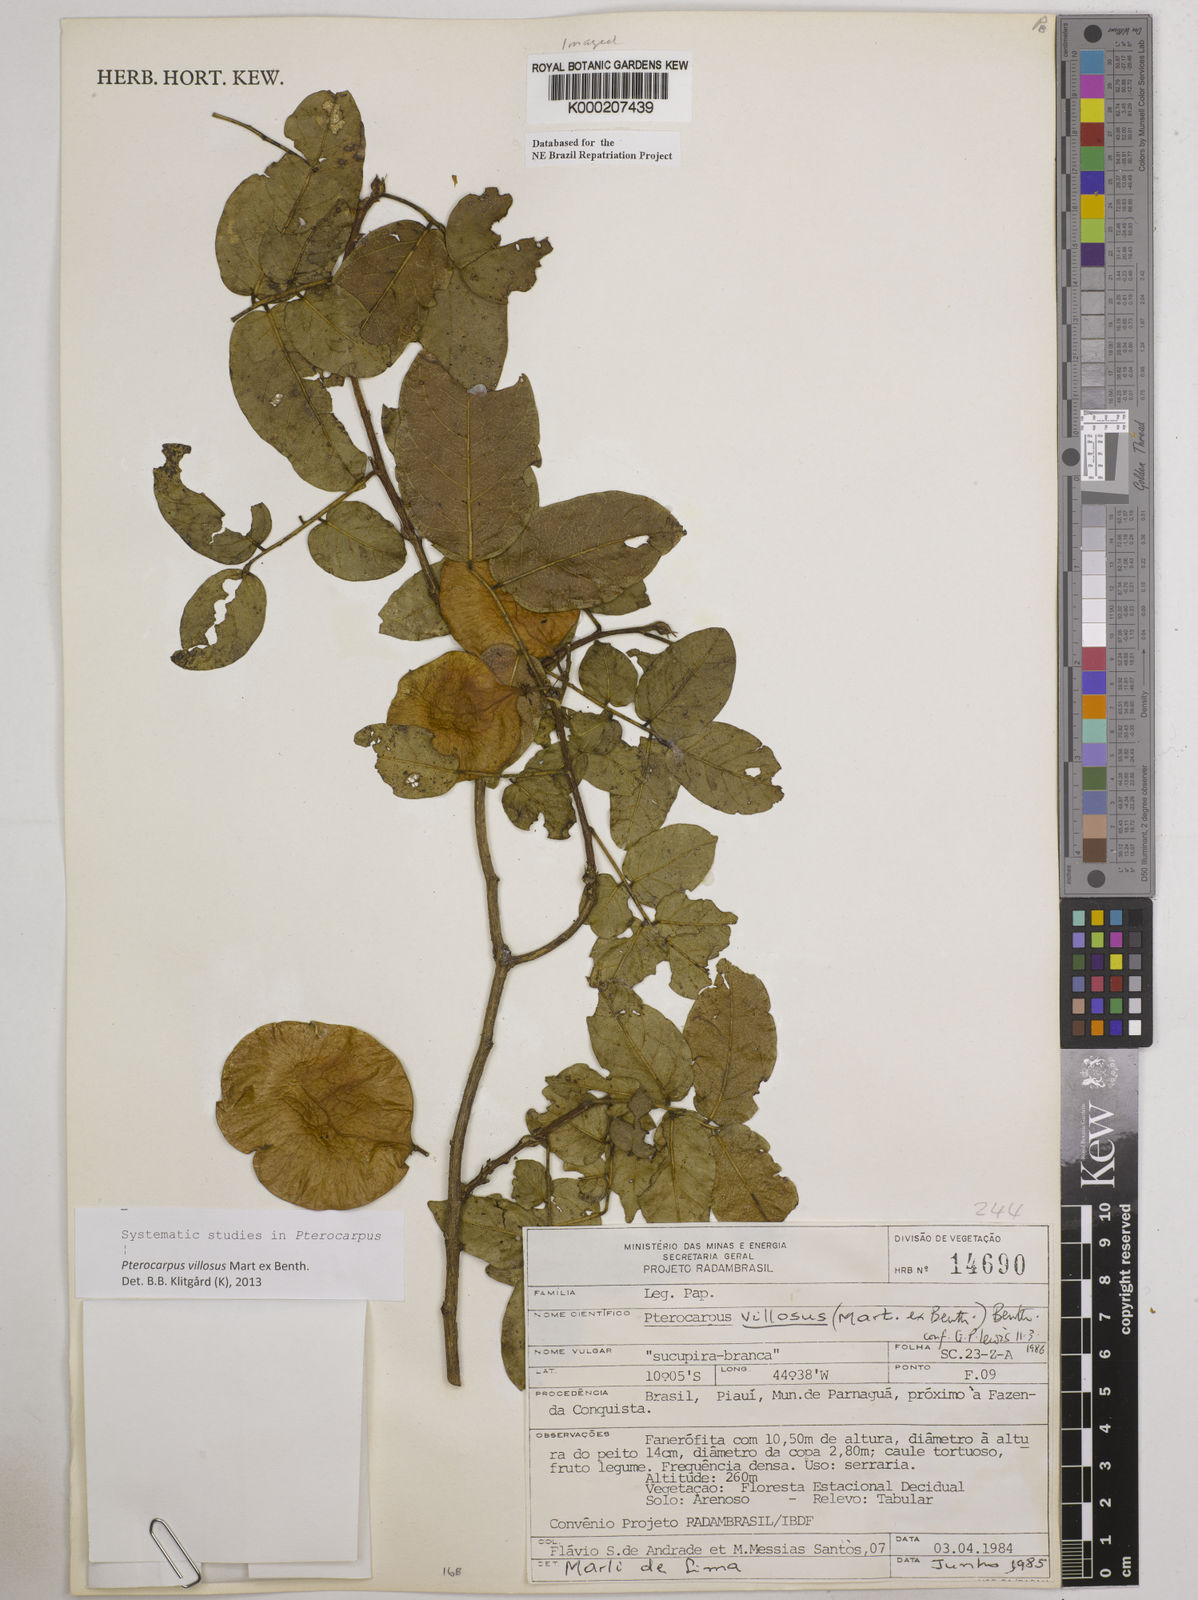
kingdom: Plantae
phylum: Tracheophyta
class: Magnoliopsida
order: Fabales
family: Fabaceae
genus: Pterocarpus
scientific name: Pterocarpus villosus
